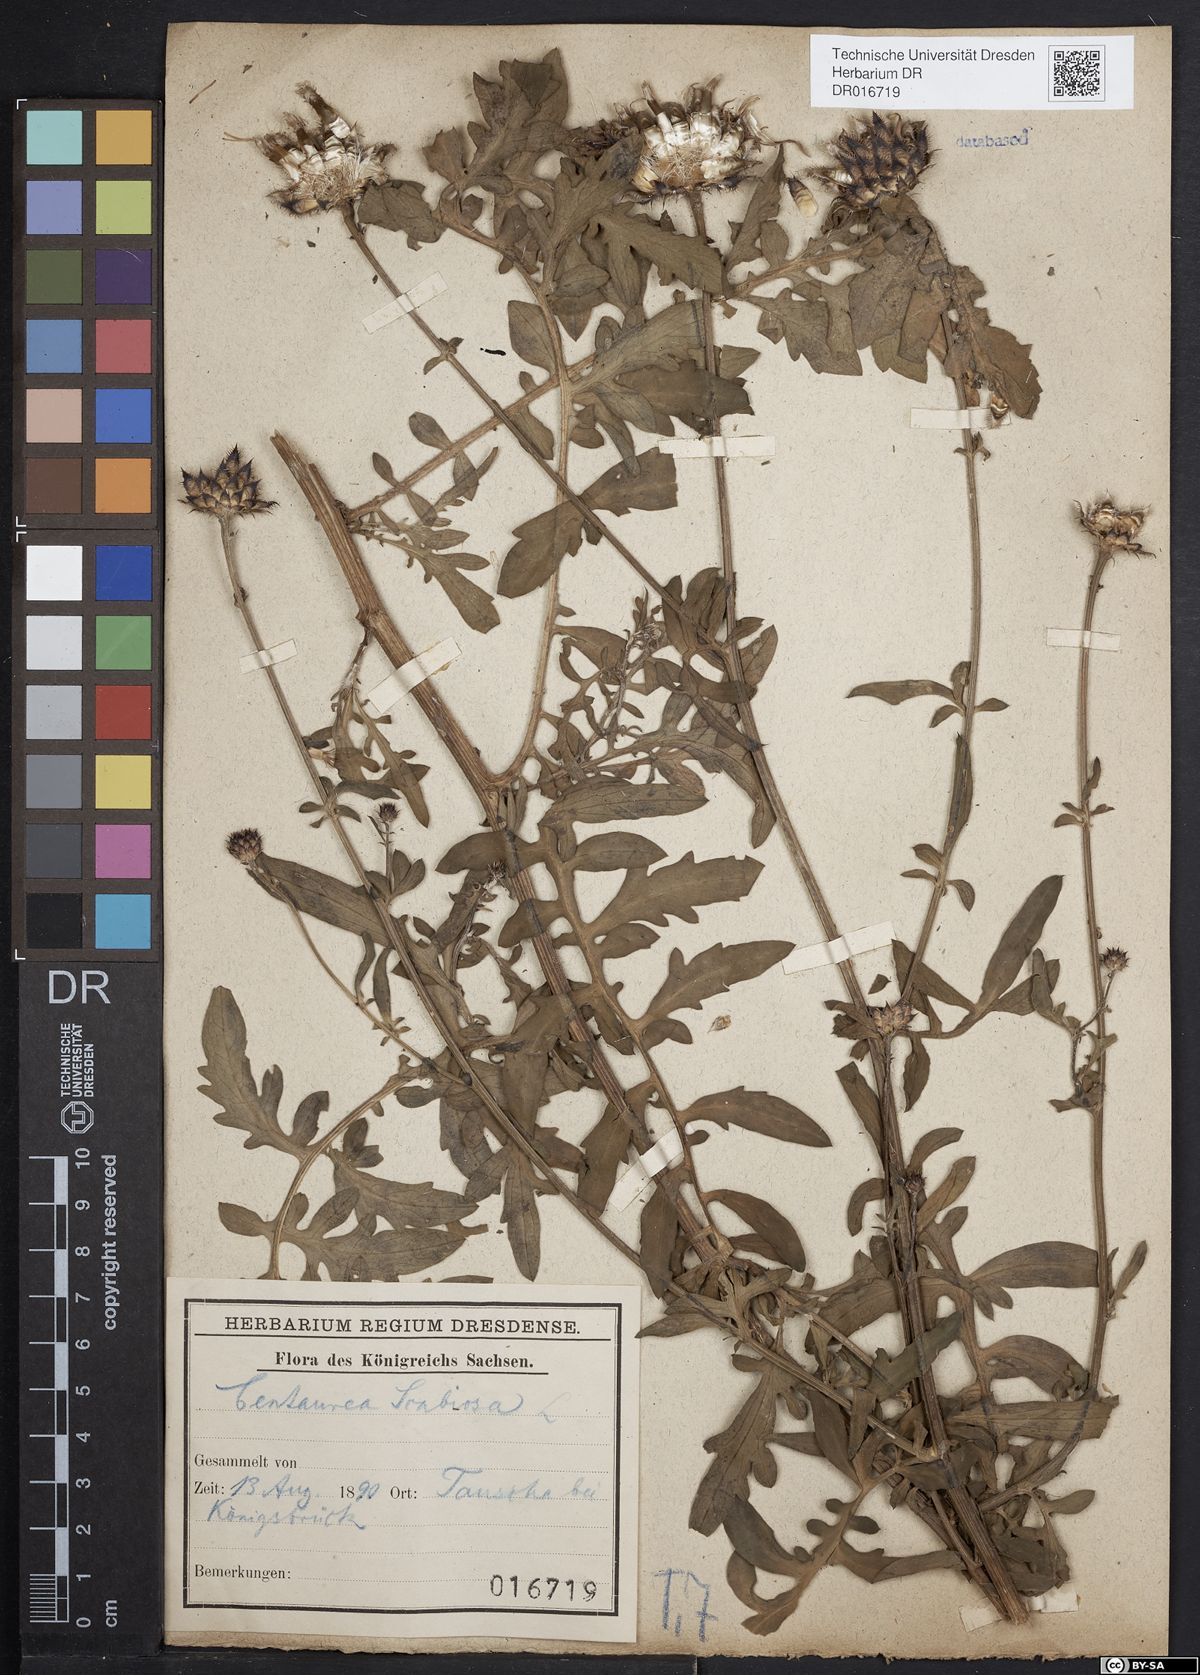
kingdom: Plantae
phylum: Tracheophyta
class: Magnoliopsida
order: Asterales
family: Asteraceae
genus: Centaurea
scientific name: Centaurea scabiosa
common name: Greater knapweed
